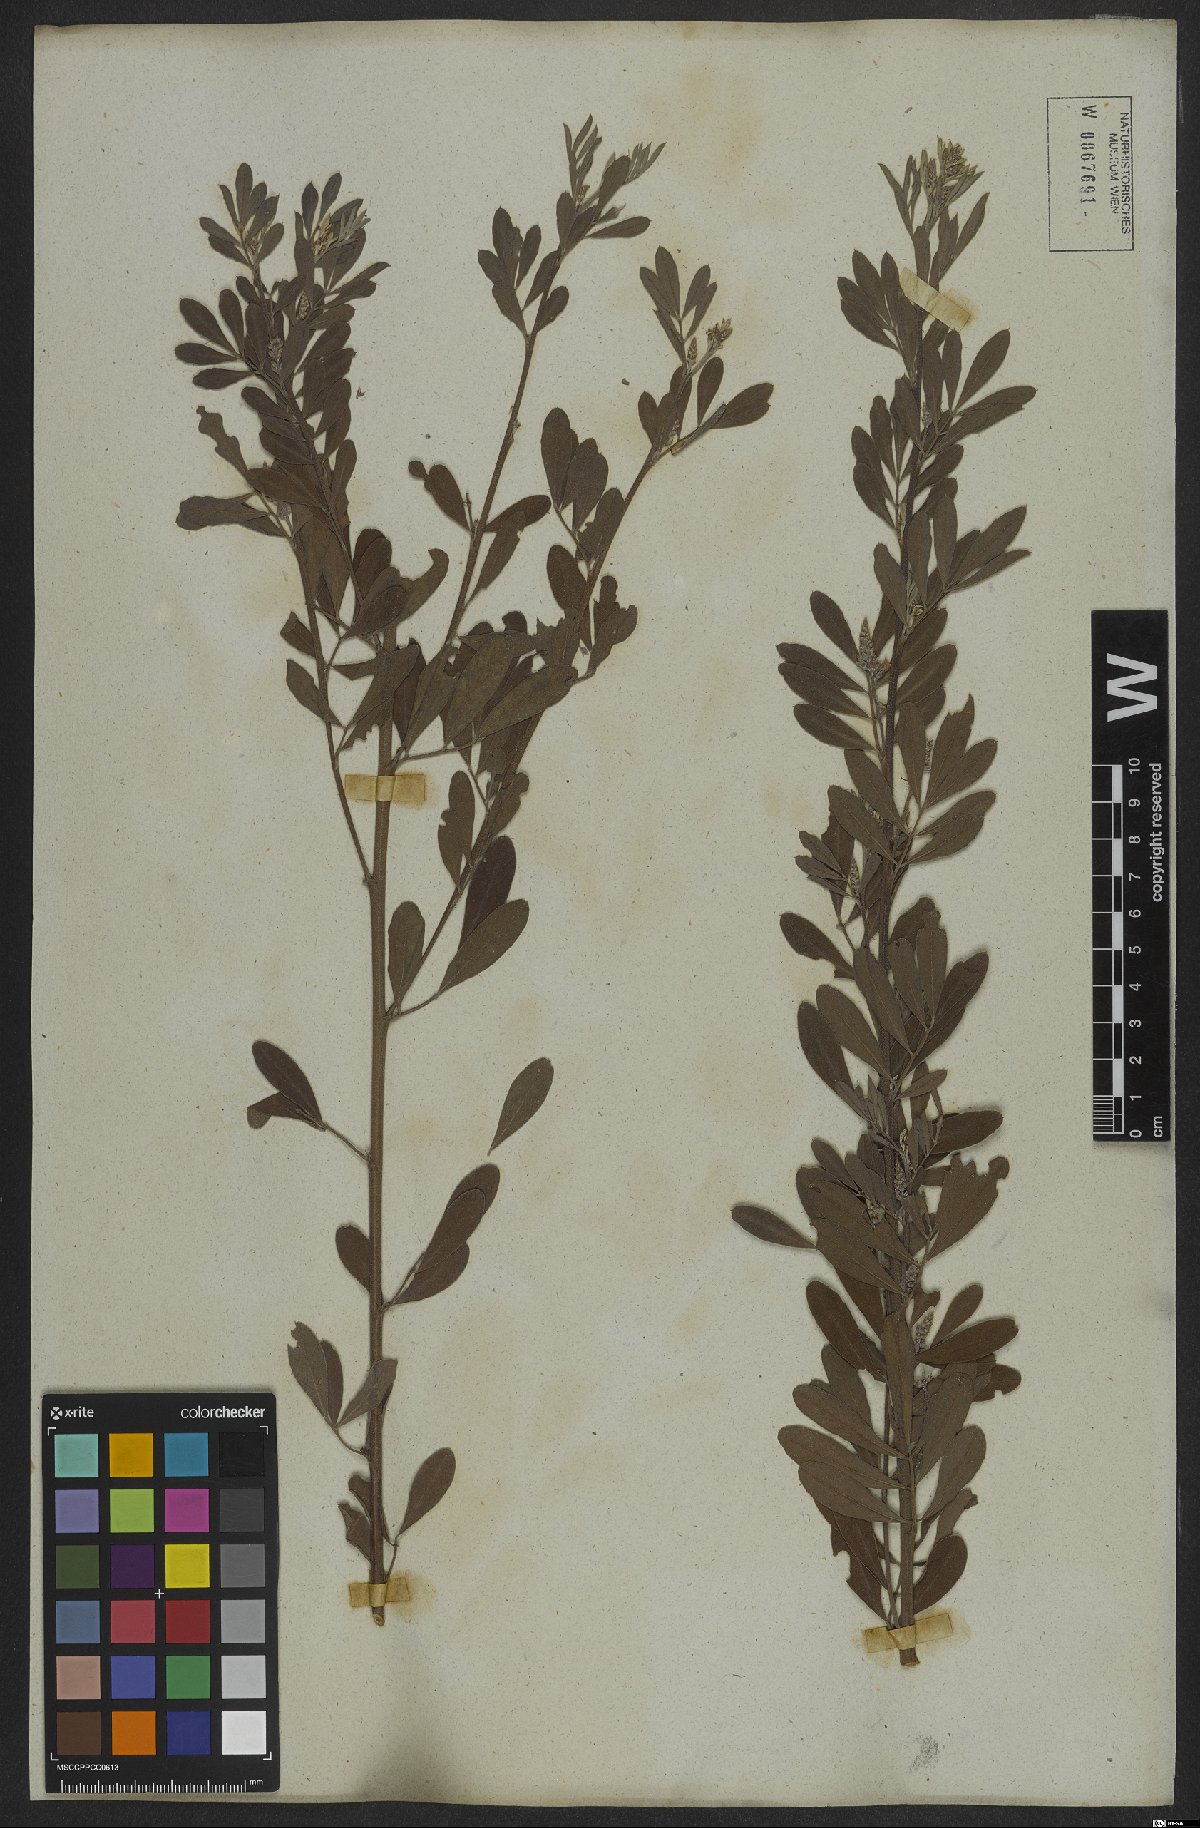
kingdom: Plantae
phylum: Tracheophyta
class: Magnoliopsida
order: Fabales
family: Fabaceae
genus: Indigofera
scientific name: Indigofera lespedezioides
